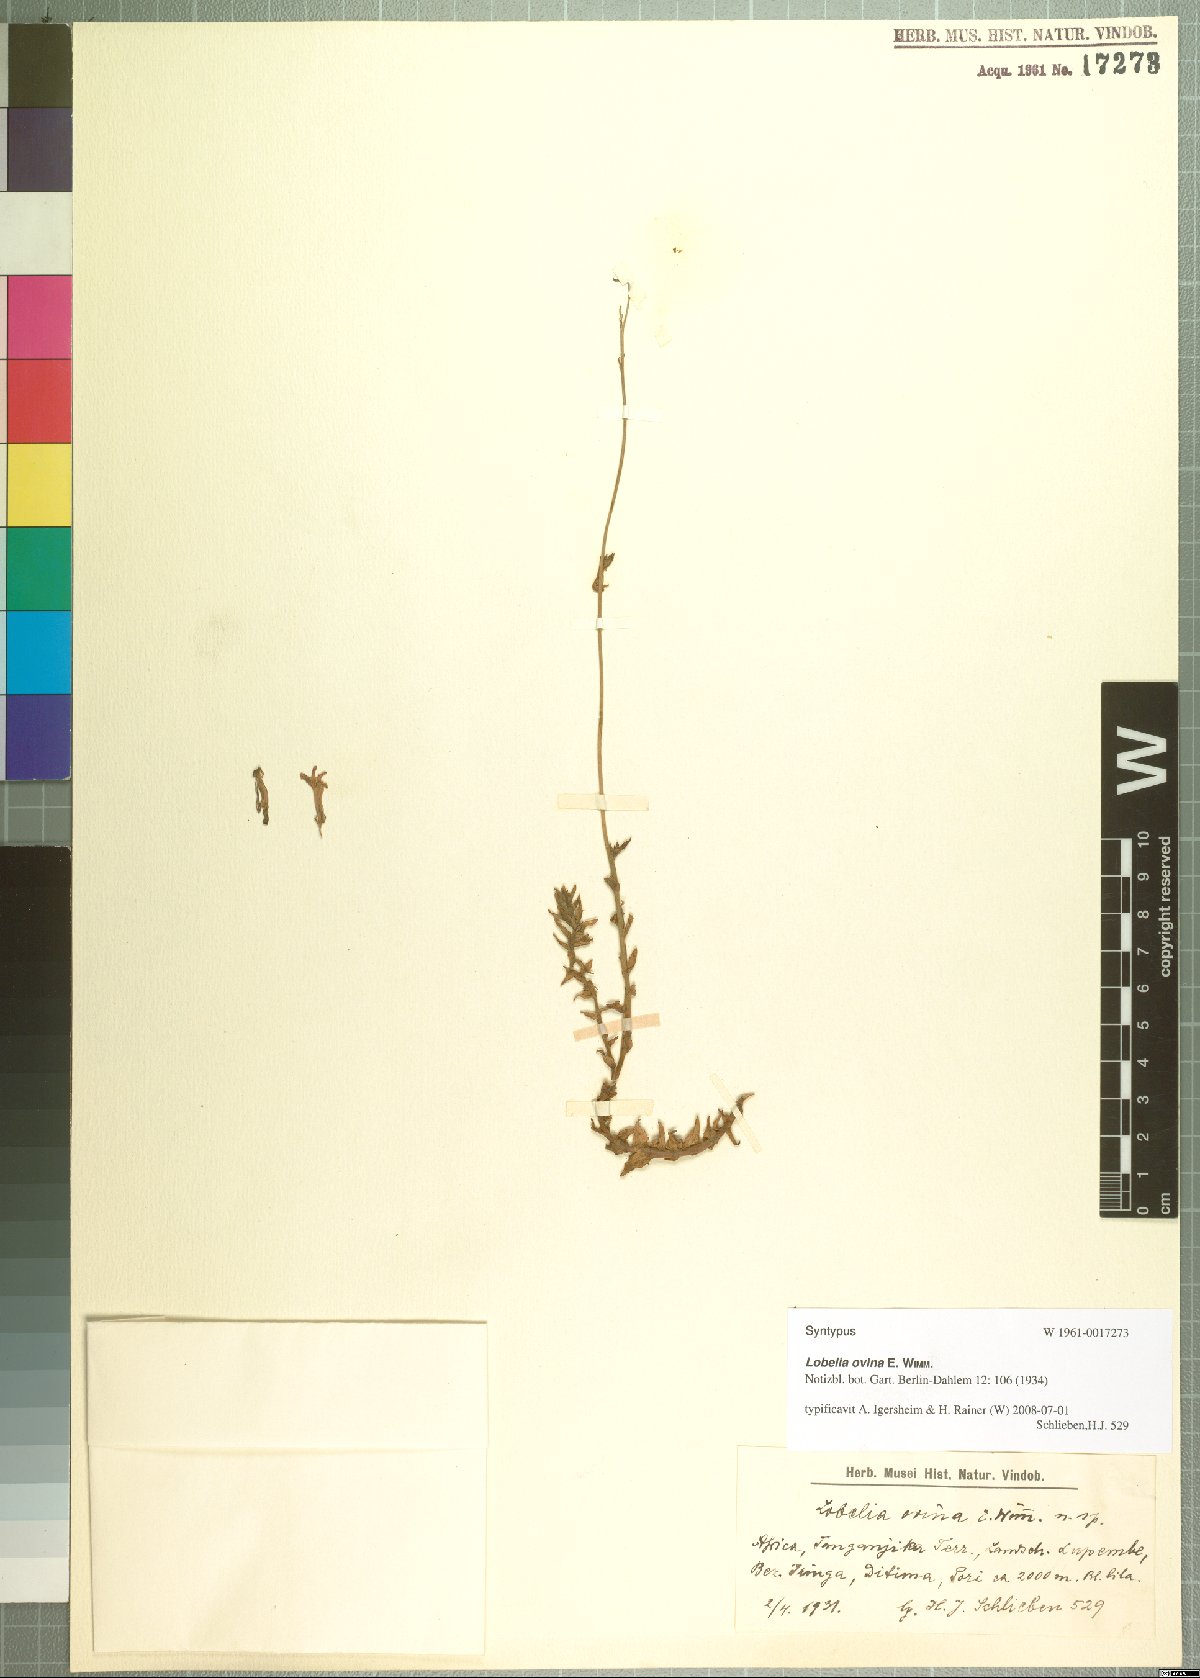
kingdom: Plantae
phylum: Tracheophyta
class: Magnoliopsida
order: Asterales
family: Campanulaceae
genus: Lobelia
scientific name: Lobelia ovina
